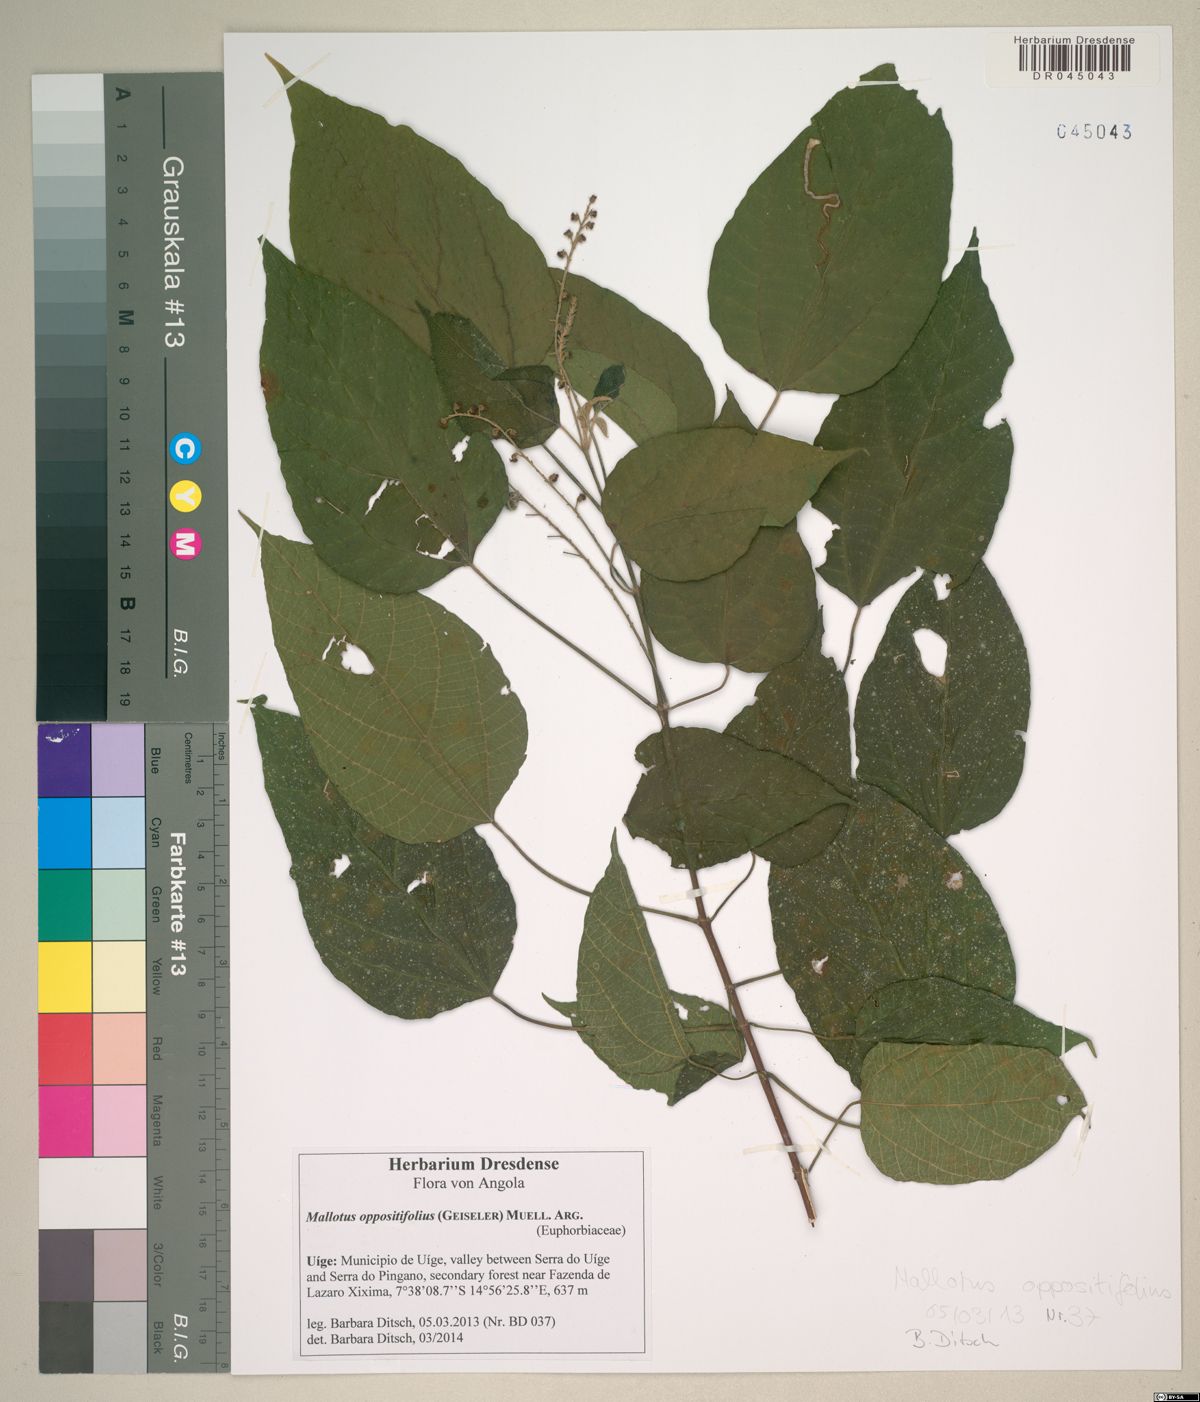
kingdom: Plantae
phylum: Tracheophyta
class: Magnoliopsida
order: Malpighiales
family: Euphorbiaceae
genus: Mallotus
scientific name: Mallotus oppositifolius
